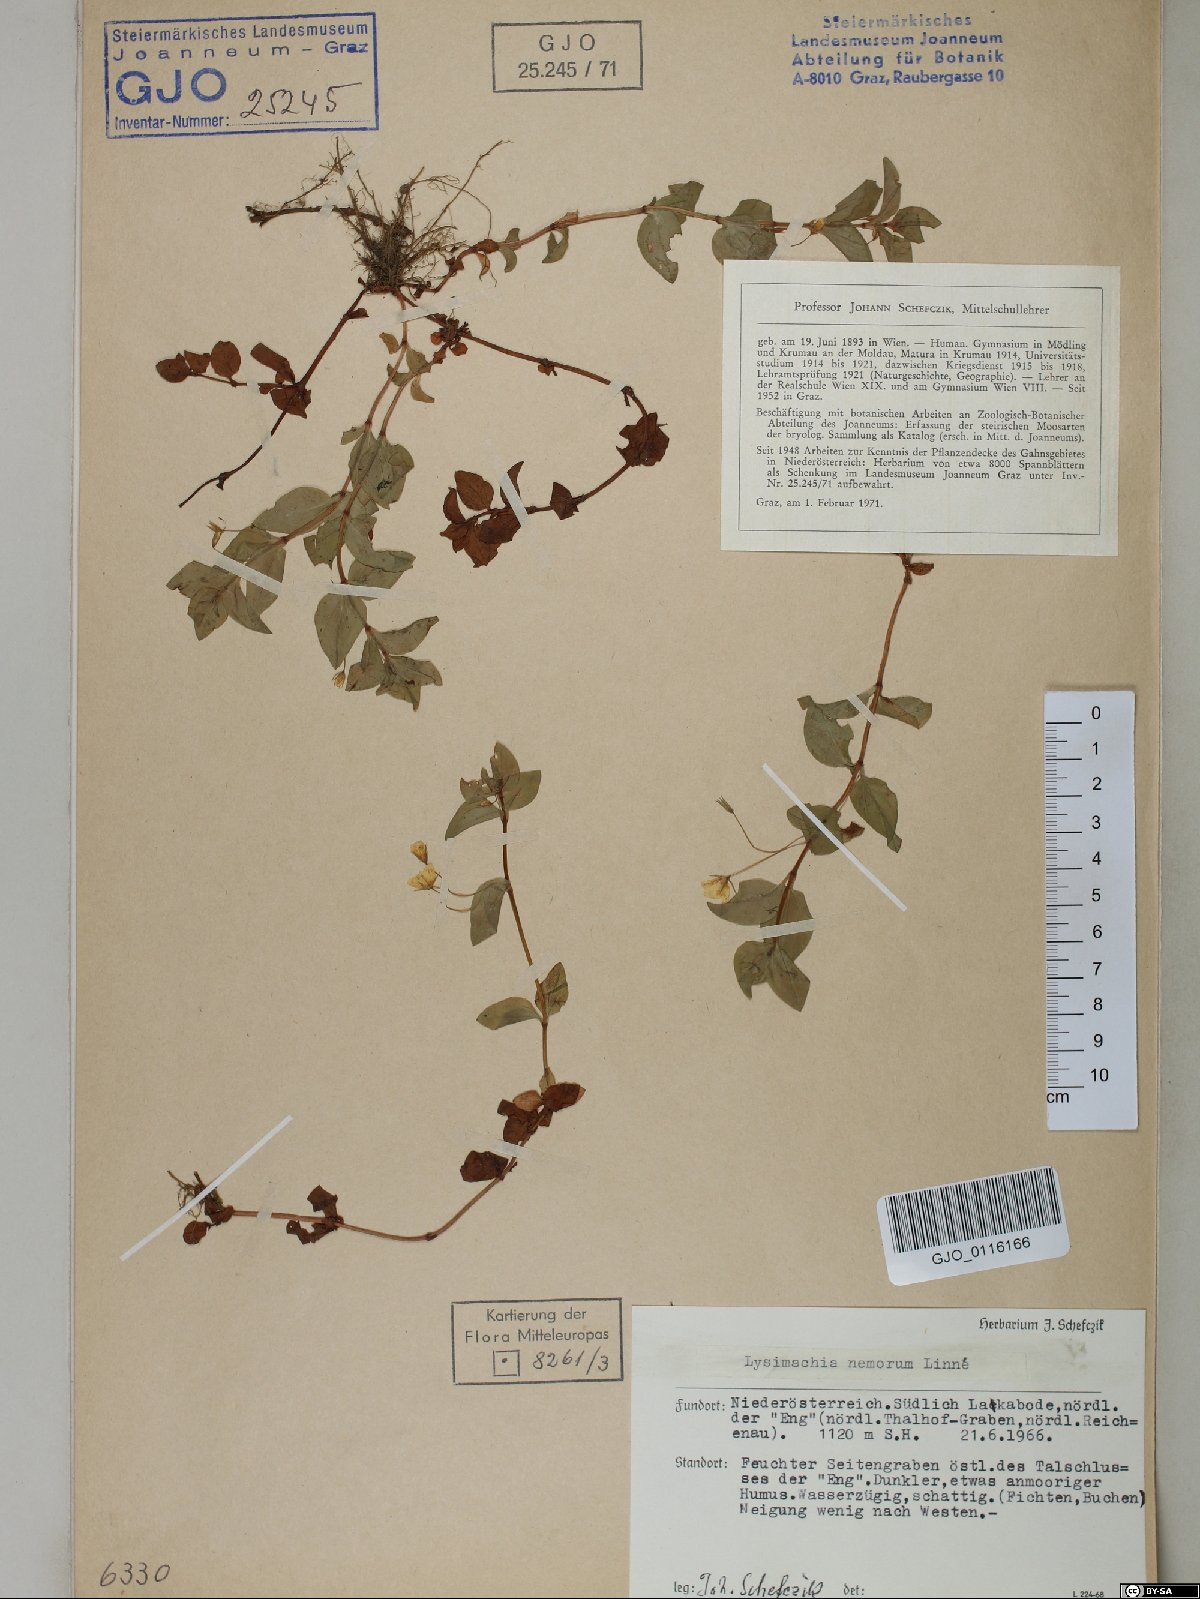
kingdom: Plantae
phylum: Tracheophyta
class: Magnoliopsida
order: Ericales
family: Primulaceae
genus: Lysimachia
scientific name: Lysimachia nemorum
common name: Yellow pimpernel
